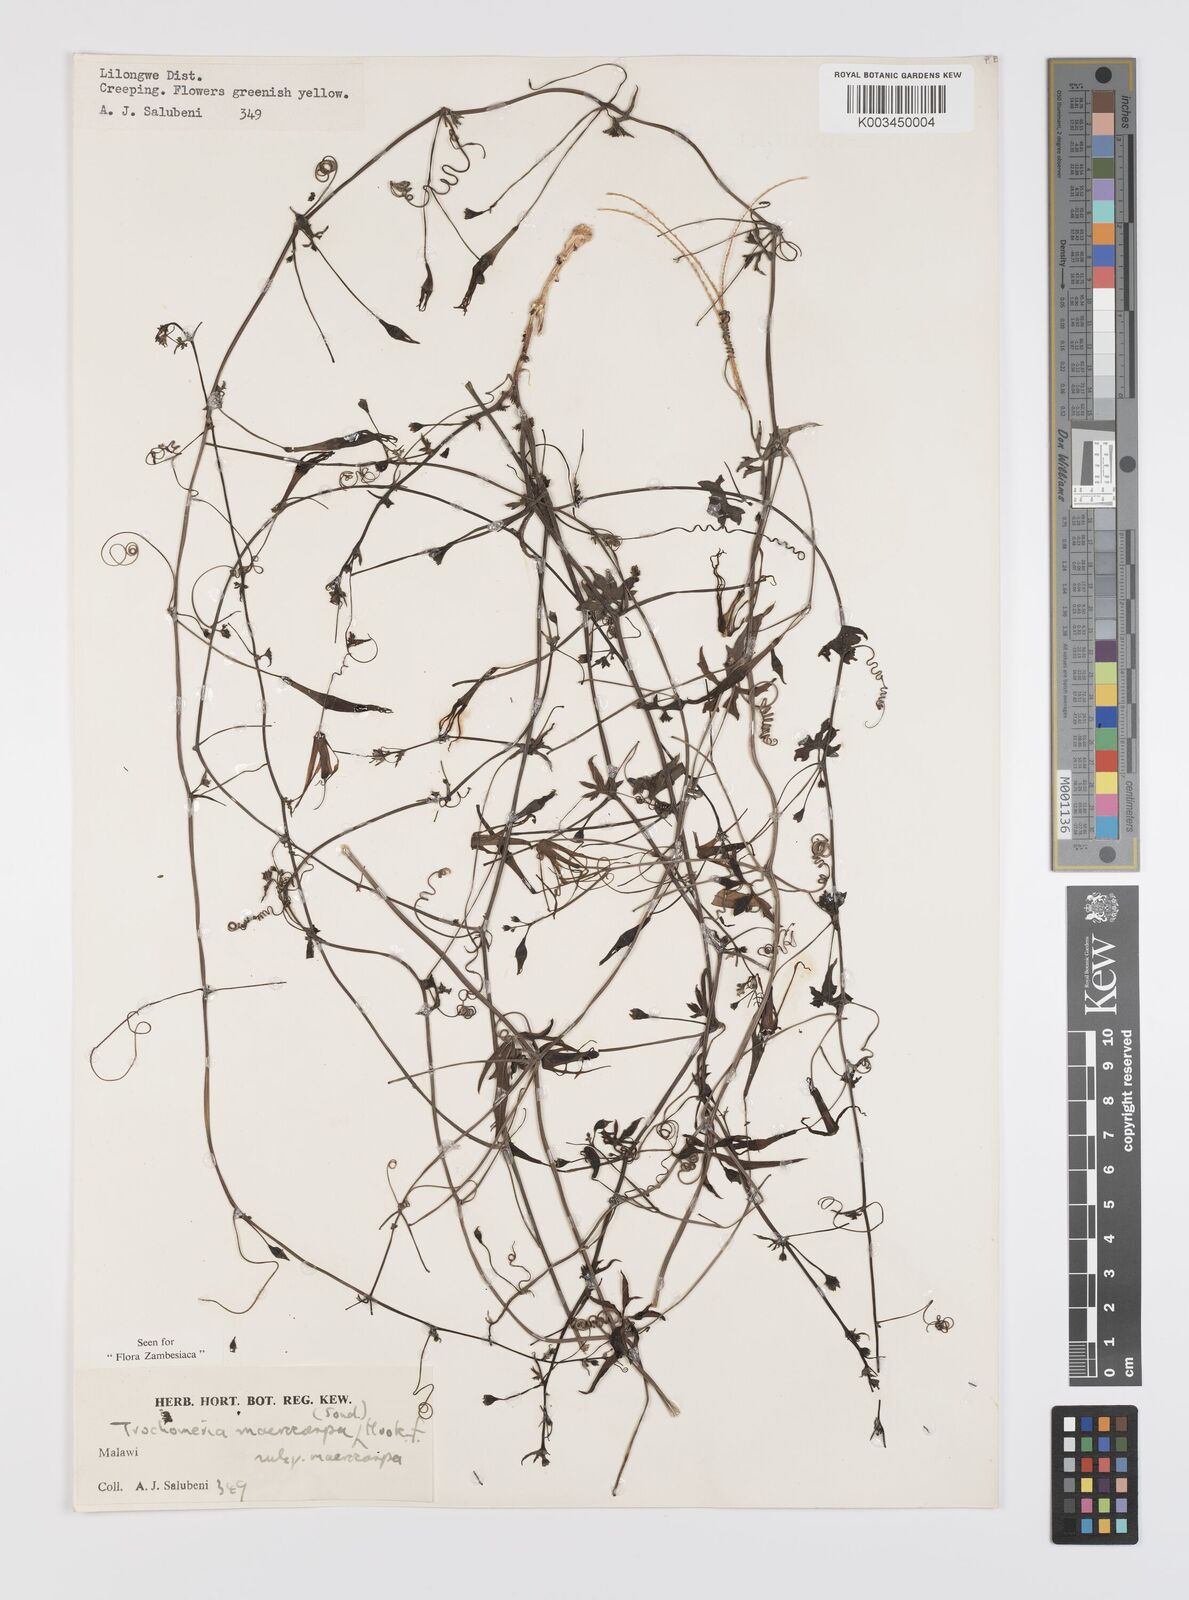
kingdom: Plantae
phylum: Tracheophyta
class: Magnoliopsida
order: Cucurbitales
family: Cucurbitaceae
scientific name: Cucurbitaceae
